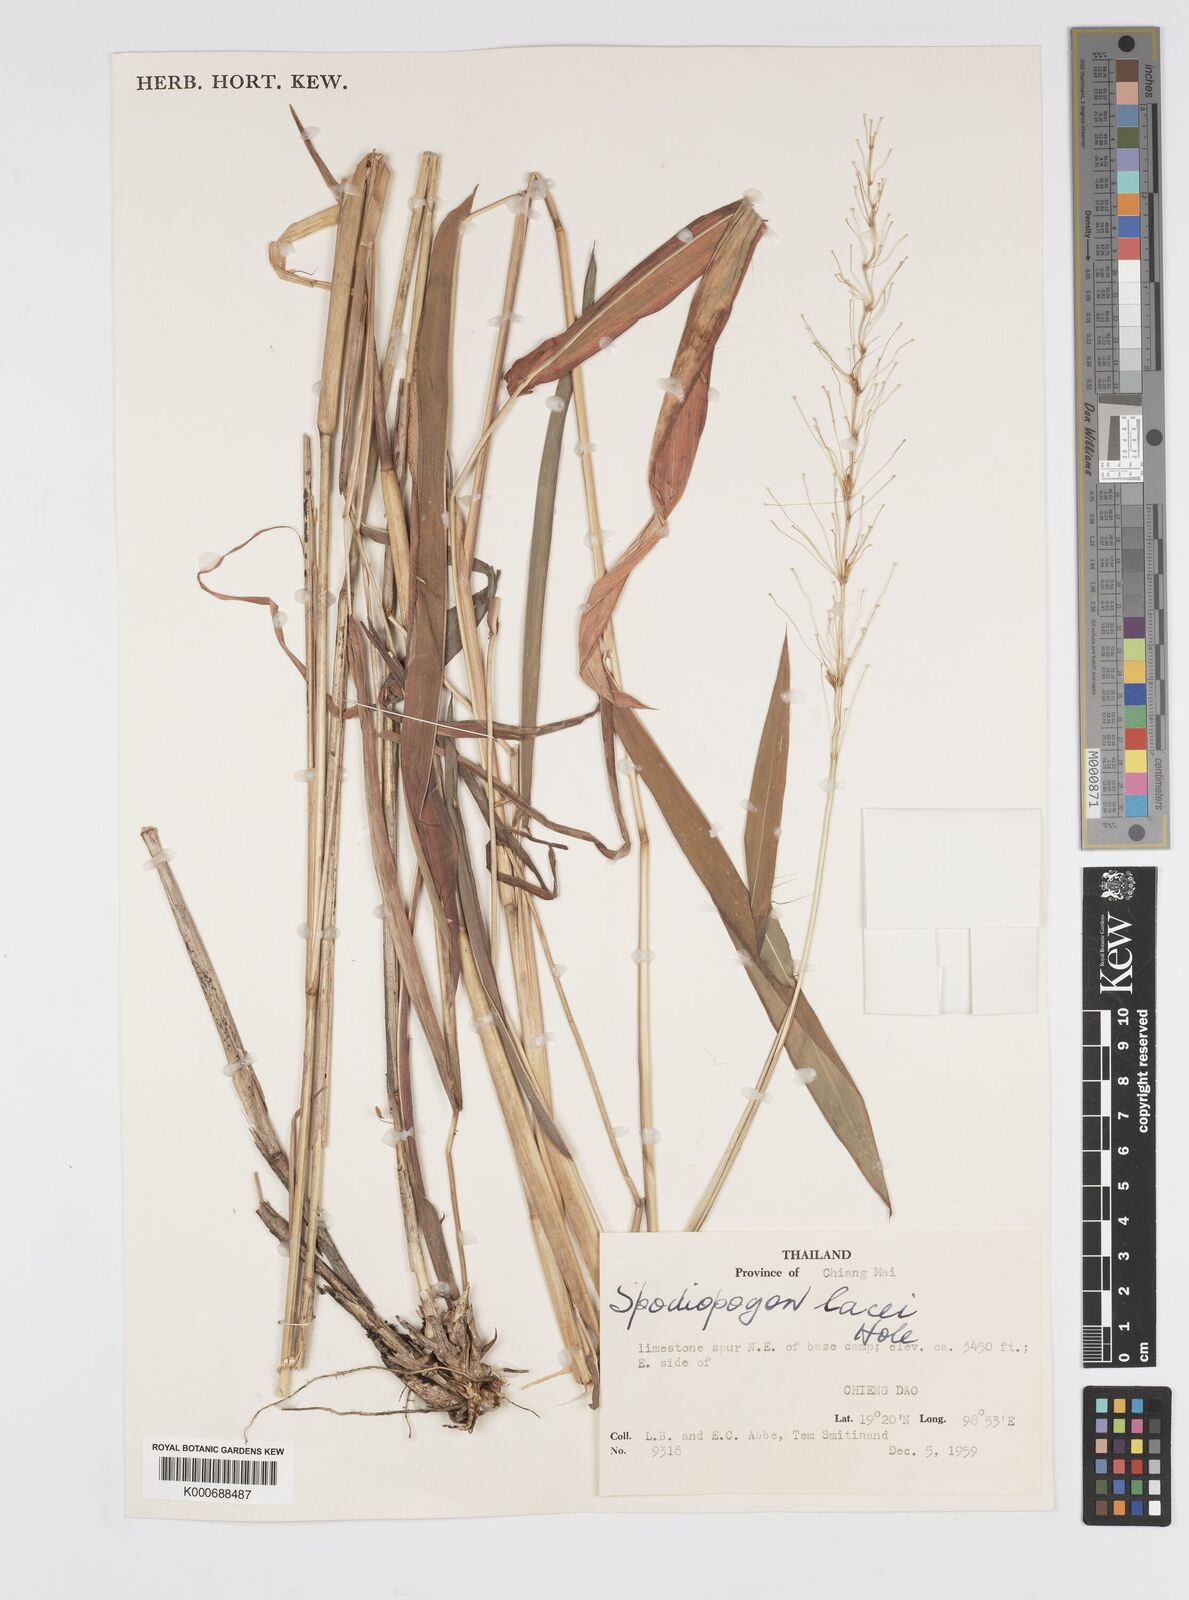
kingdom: Plantae
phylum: Tracheophyta
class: Liliopsida
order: Poales
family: Poaceae
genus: Spodiopogon
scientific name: Spodiopogon lacei
